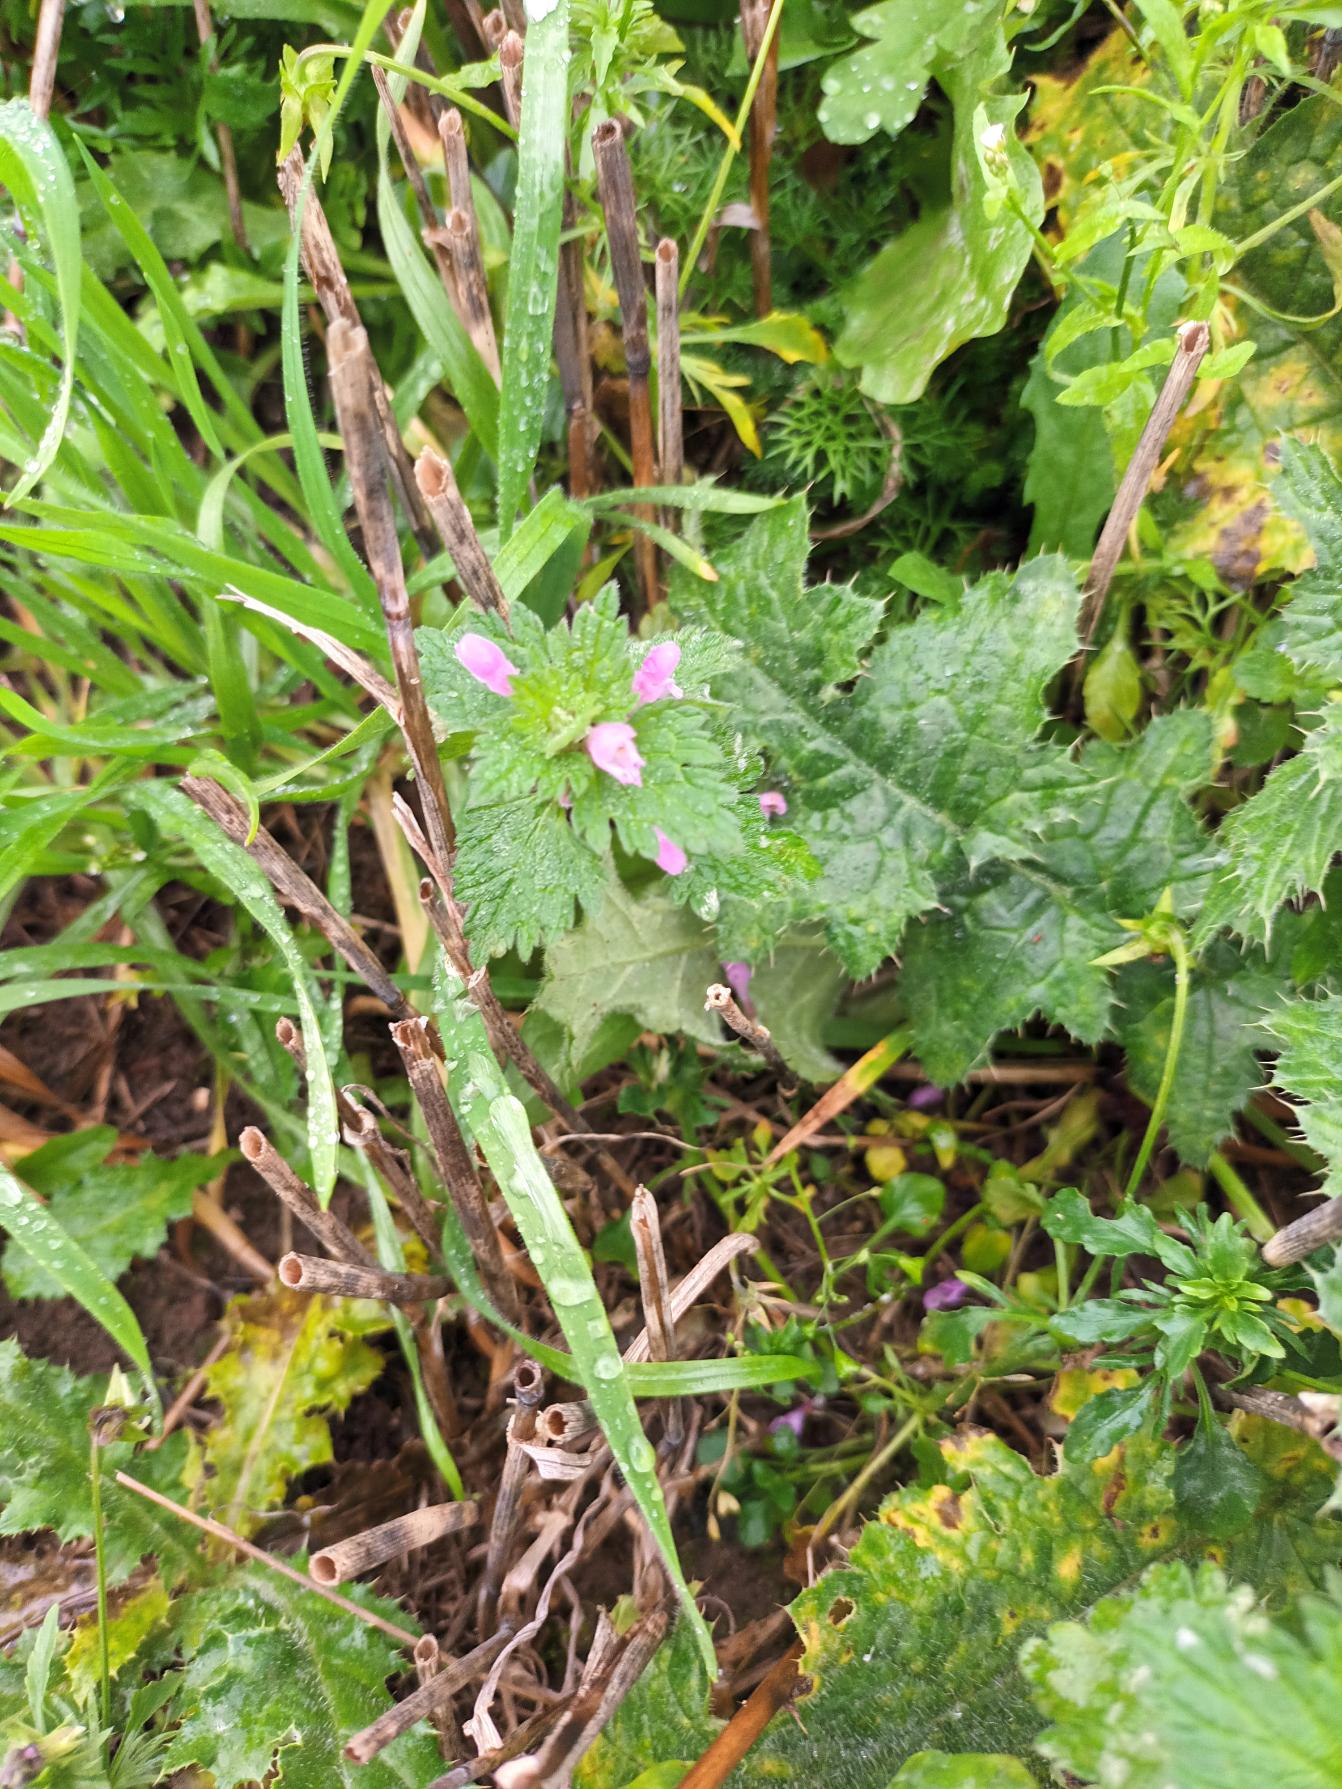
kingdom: Plantae
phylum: Tracheophyta
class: Magnoliopsida
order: Lamiales
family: Lamiaceae
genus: Lamium
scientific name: Lamium hybridum
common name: Fliget tvetand
